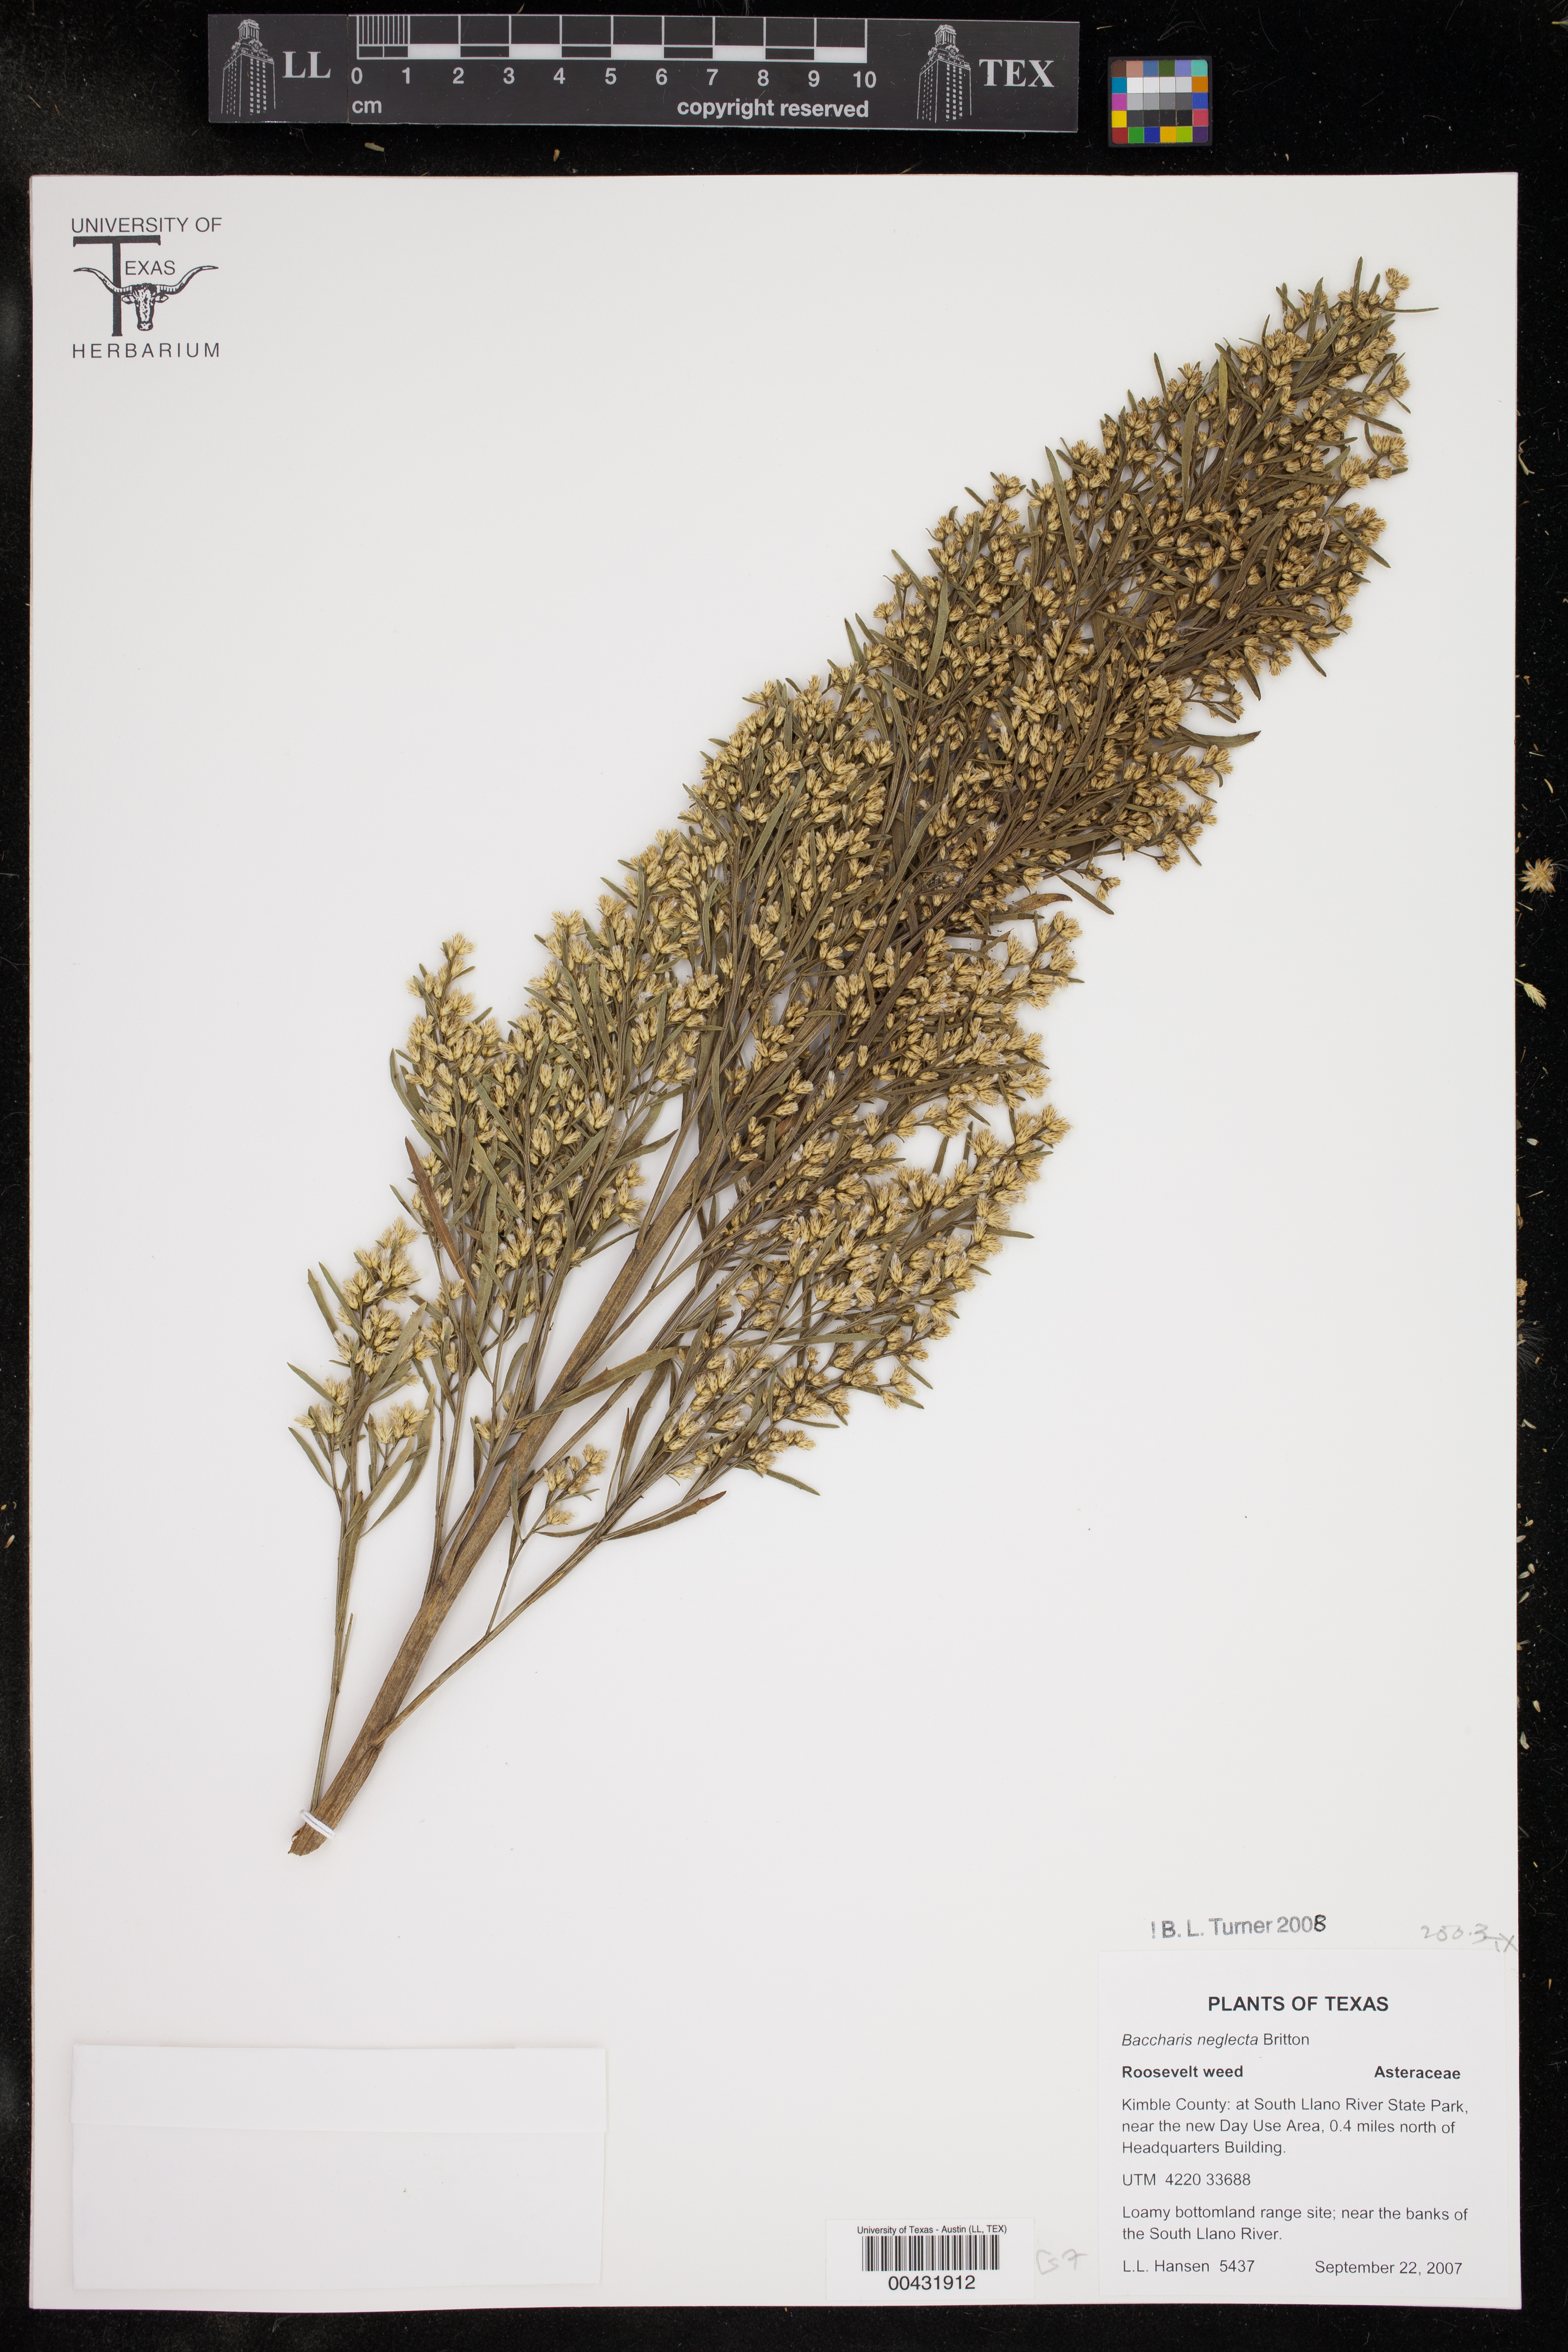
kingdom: Plantae
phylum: Tracheophyta
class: Magnoliopsida
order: Asterales
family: Asteraceae
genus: Baccharis
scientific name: Baccharis neglecta
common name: Roosevelt-weed
